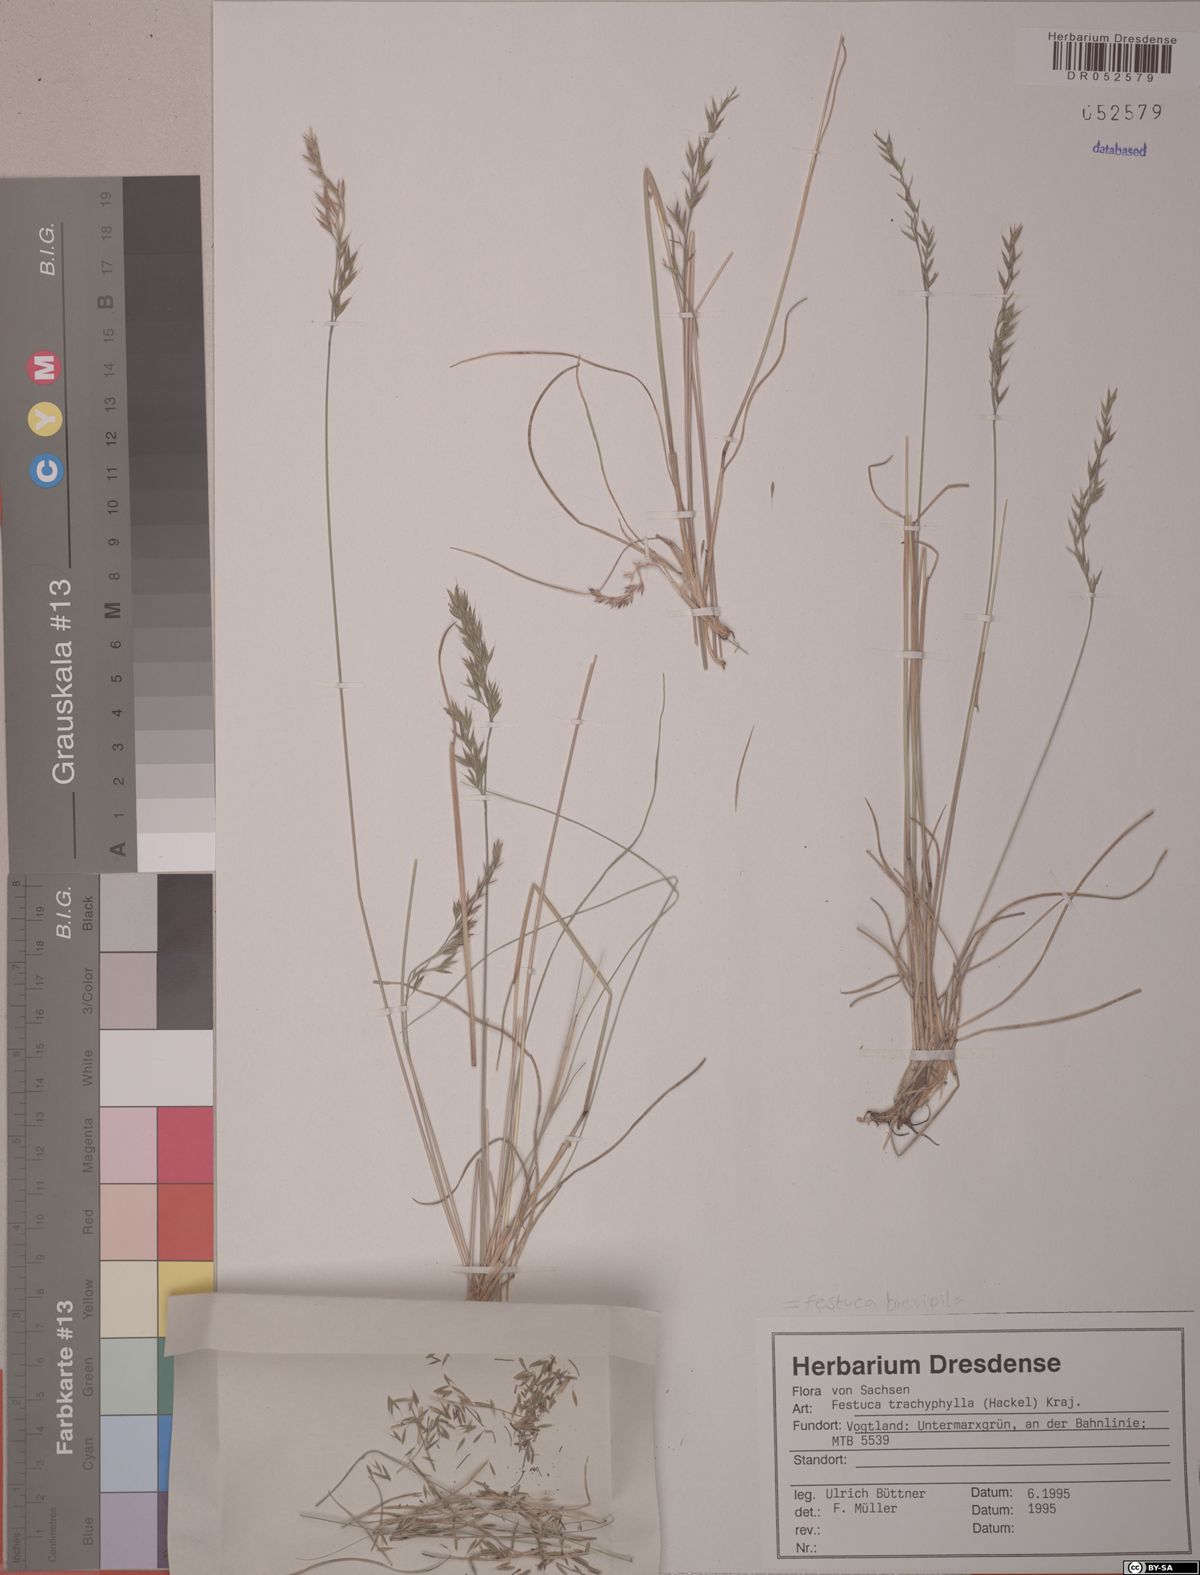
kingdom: Plantae
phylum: Tracheophyta
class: Liliopsida
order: Poales
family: Poaceae
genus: Festuca
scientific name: Festuca trachyphylla
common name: Hard fescue
